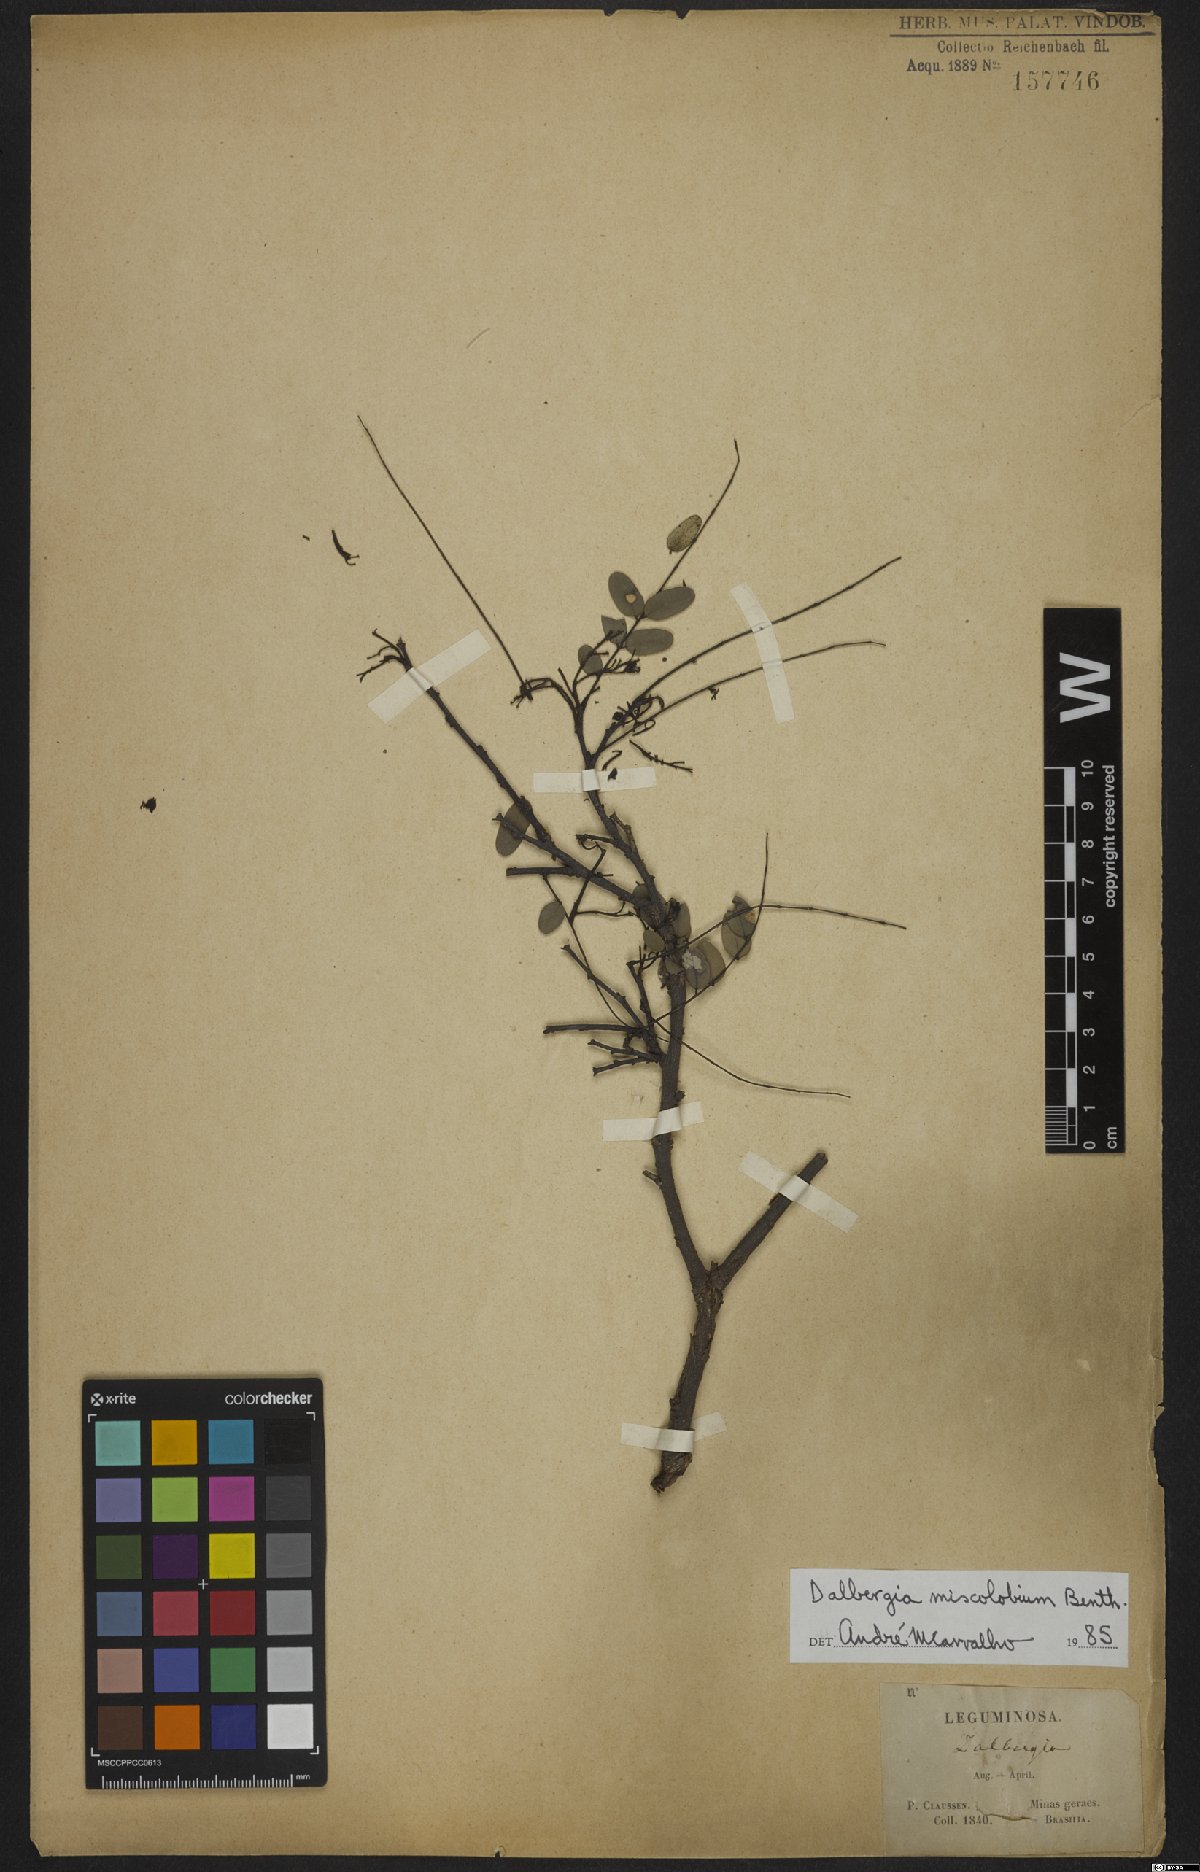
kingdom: Plantae
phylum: Tracheophyta
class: Magnoliopsida
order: Fabales
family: Fabaceae
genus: Dalbergia
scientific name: Dalbergia miscolobium
